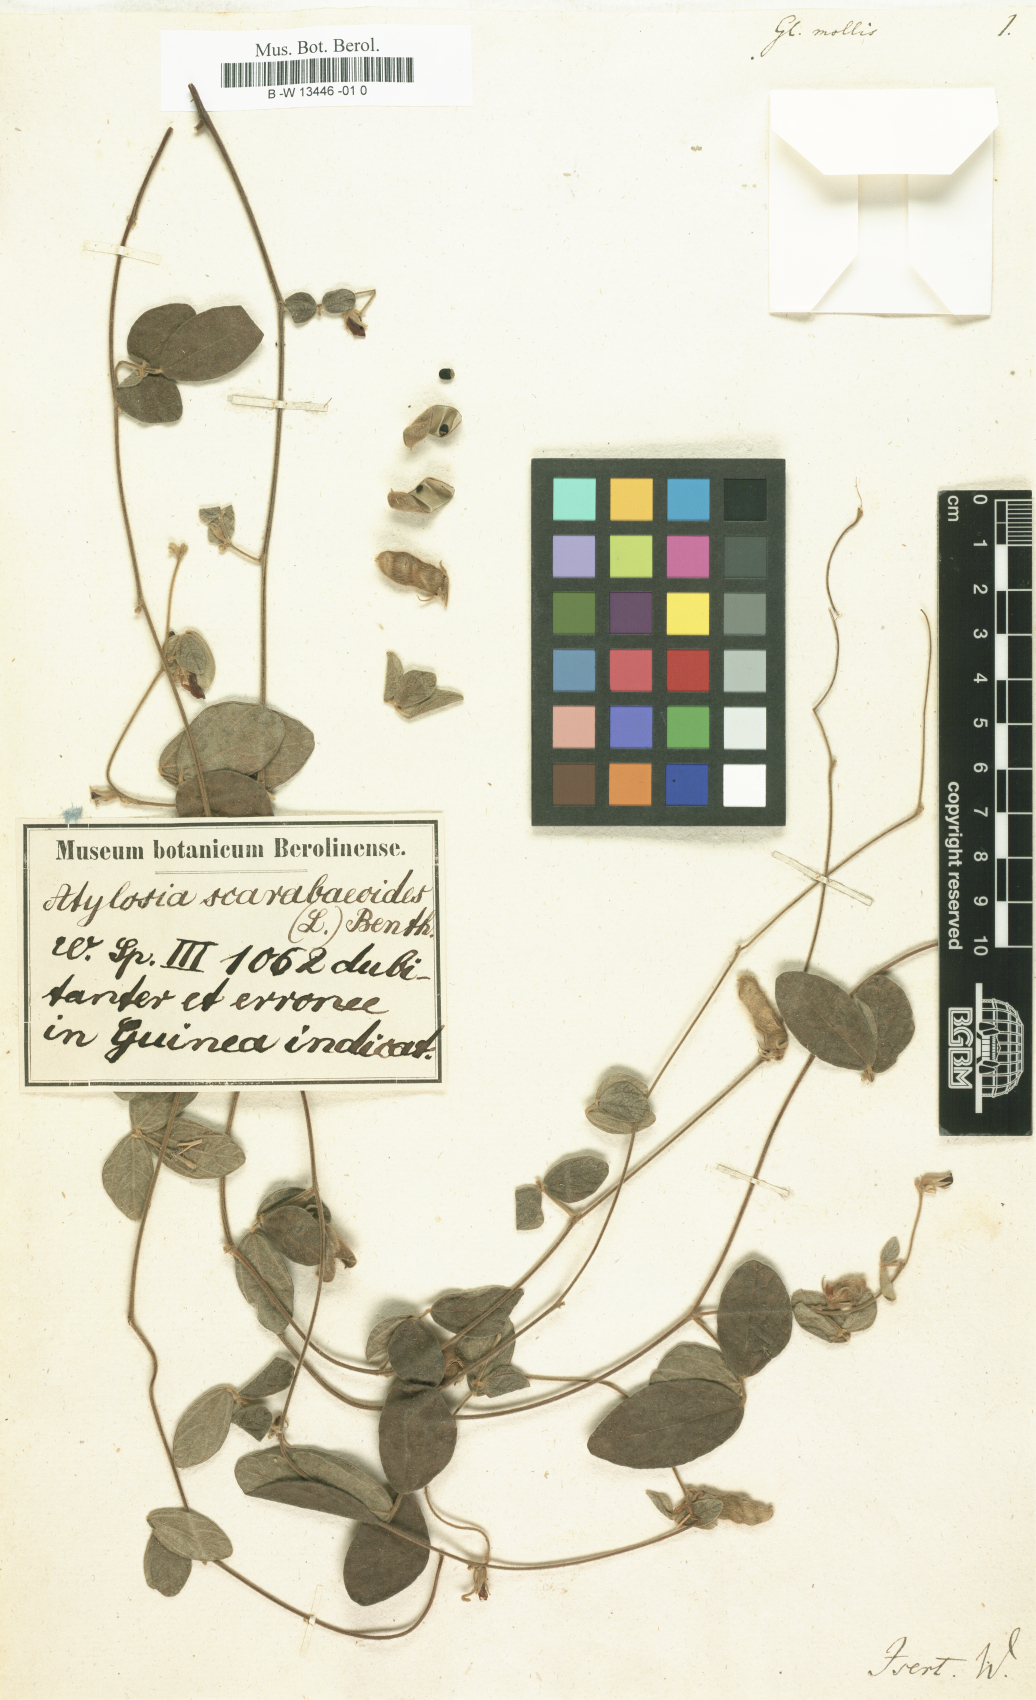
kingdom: Plantae
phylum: Tracheophyta
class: Magnoliopsida
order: Fabales
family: Fabaceae
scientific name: Fabaceae
